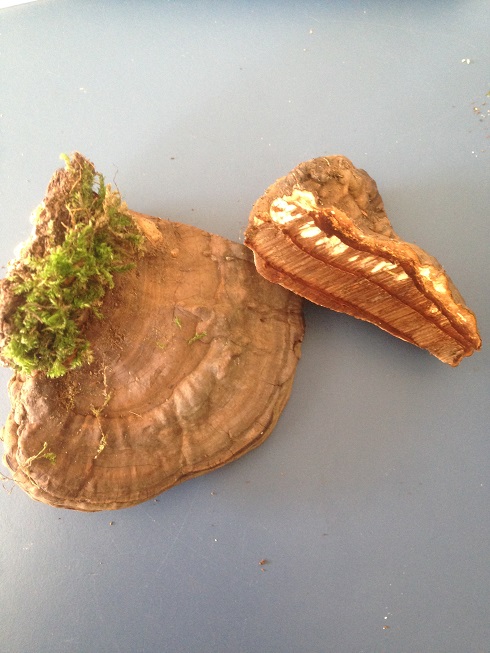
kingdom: Fungi
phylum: Basidiomycota
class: Agaricomycetes
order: Polyporales
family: Polyporaceae
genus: Ganoderma
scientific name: Ganoderma applanatum
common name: flad lakporesvamp
